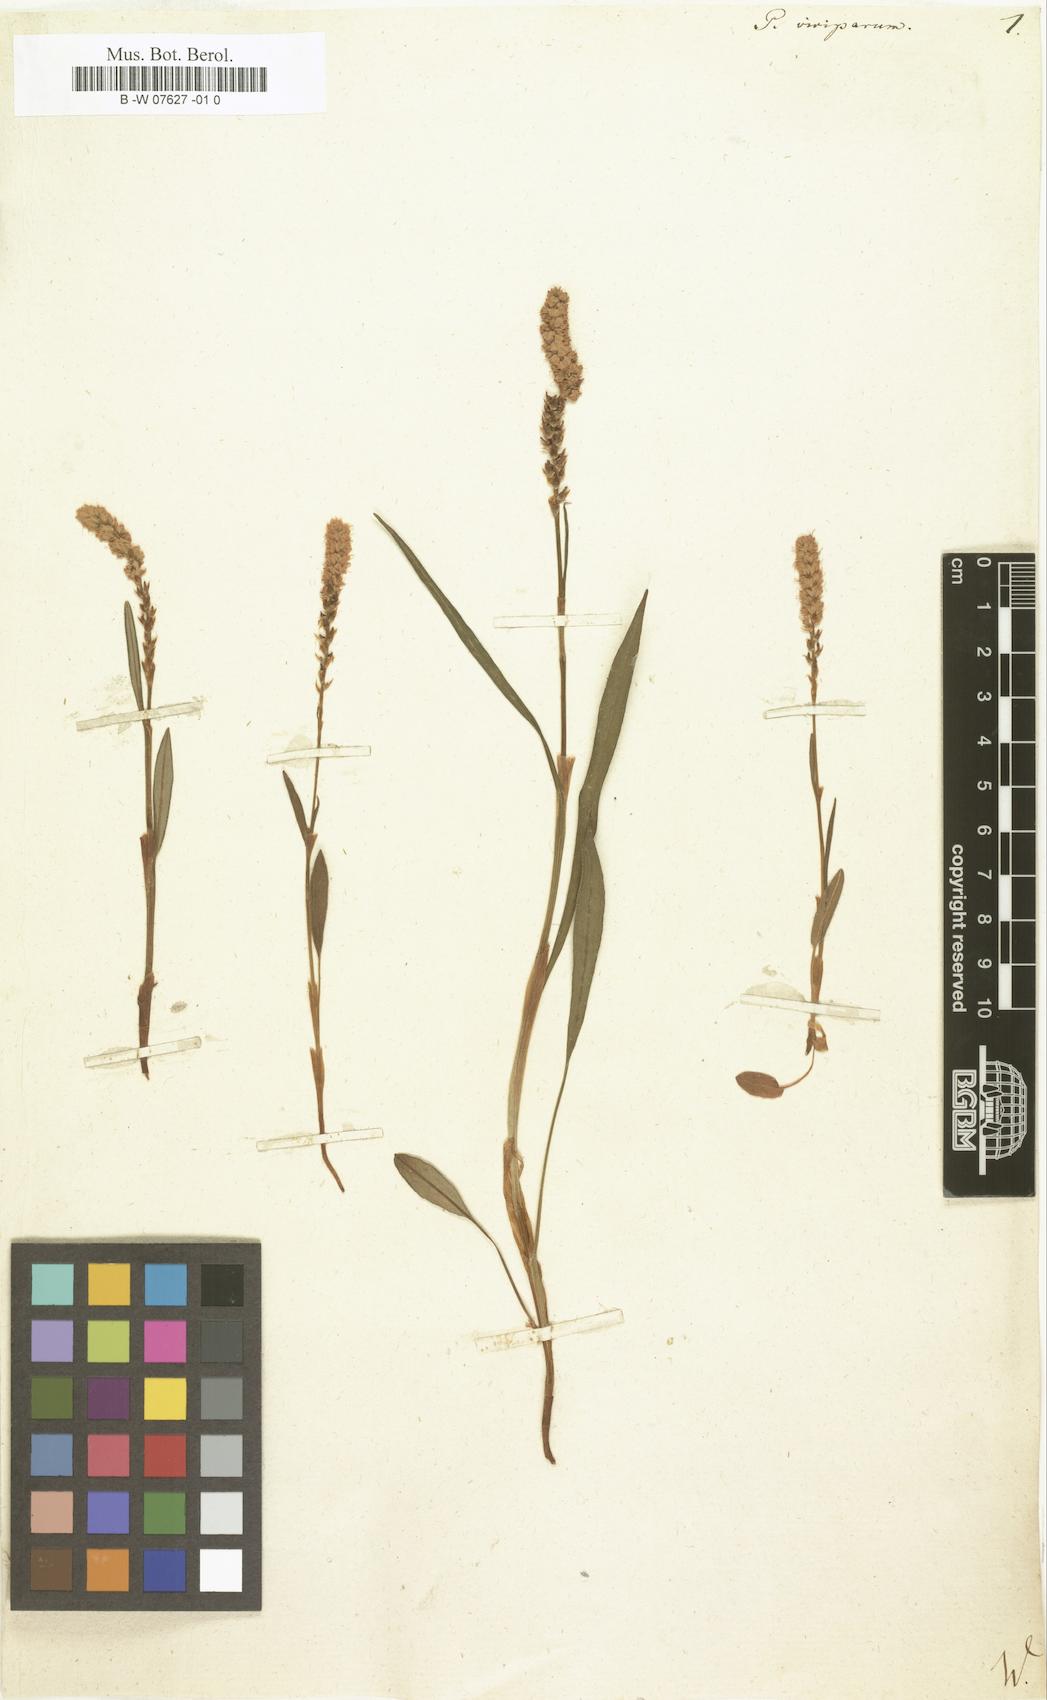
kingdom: Plantae
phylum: Tracheophyta
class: Magnoliopsida
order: Caryophyllales
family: Polygonaceae
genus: Bistorta
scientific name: Bistorta
